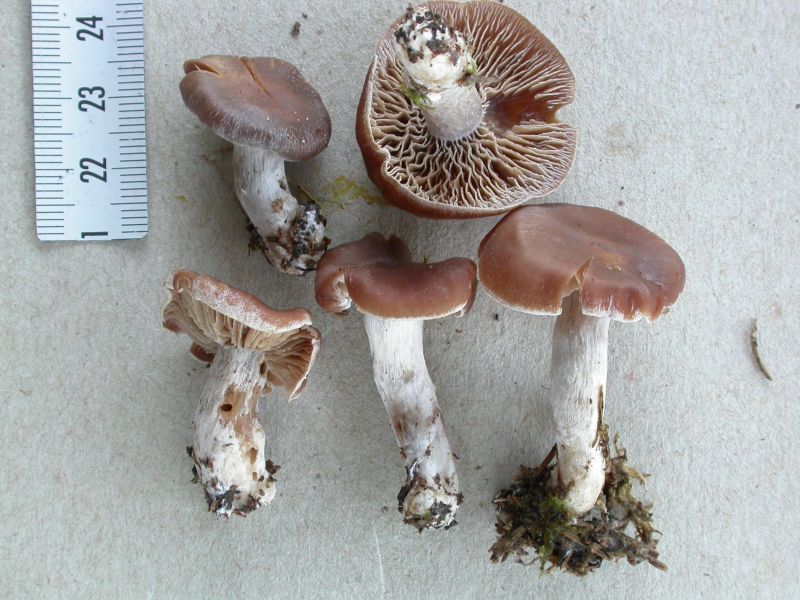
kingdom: Fungi
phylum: Basidiomycota
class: Agaricomycetes
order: Agaricales
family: Cortinariaceae
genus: Cortinarius
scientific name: Cortinarius kauffmanianus
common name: plantage-slørhat
